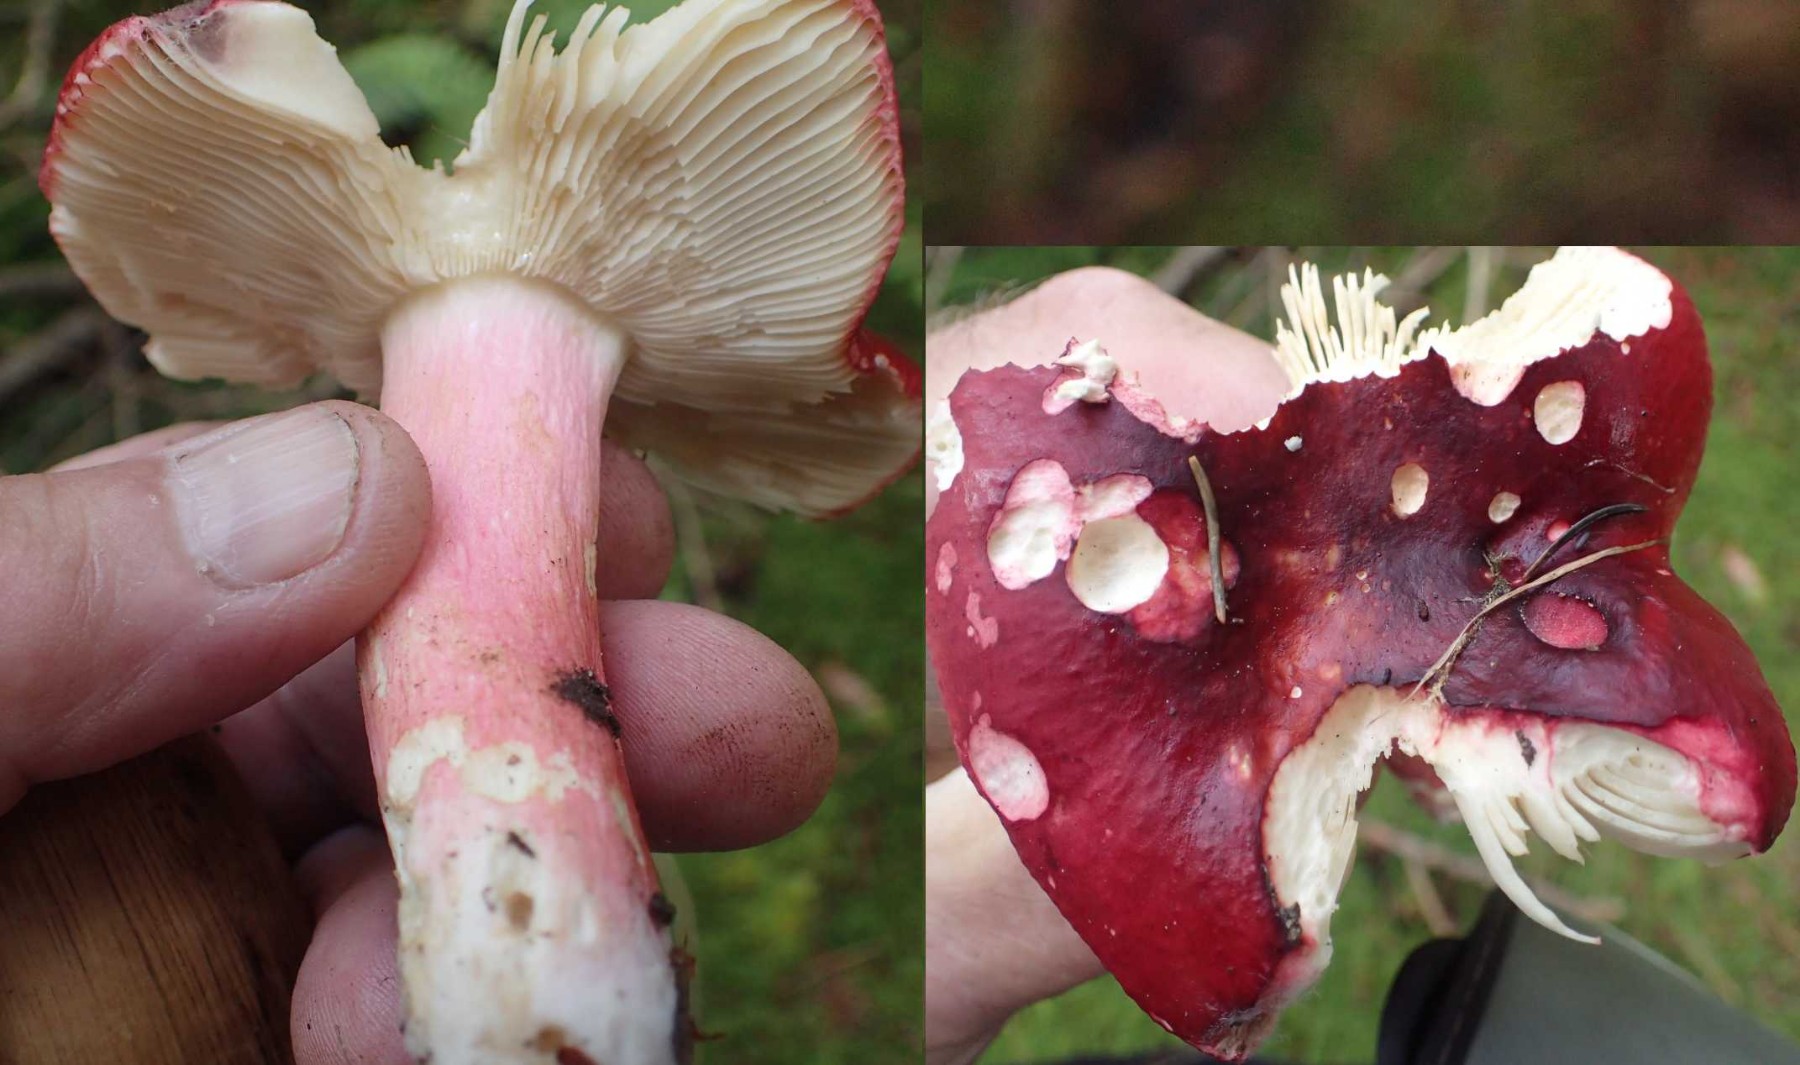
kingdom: Fungi
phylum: Basidiomycota
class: Agaricomycetes
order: Russulales
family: Russulaceae
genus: Russula
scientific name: Russula xerampelina
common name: hummer-skørhat
